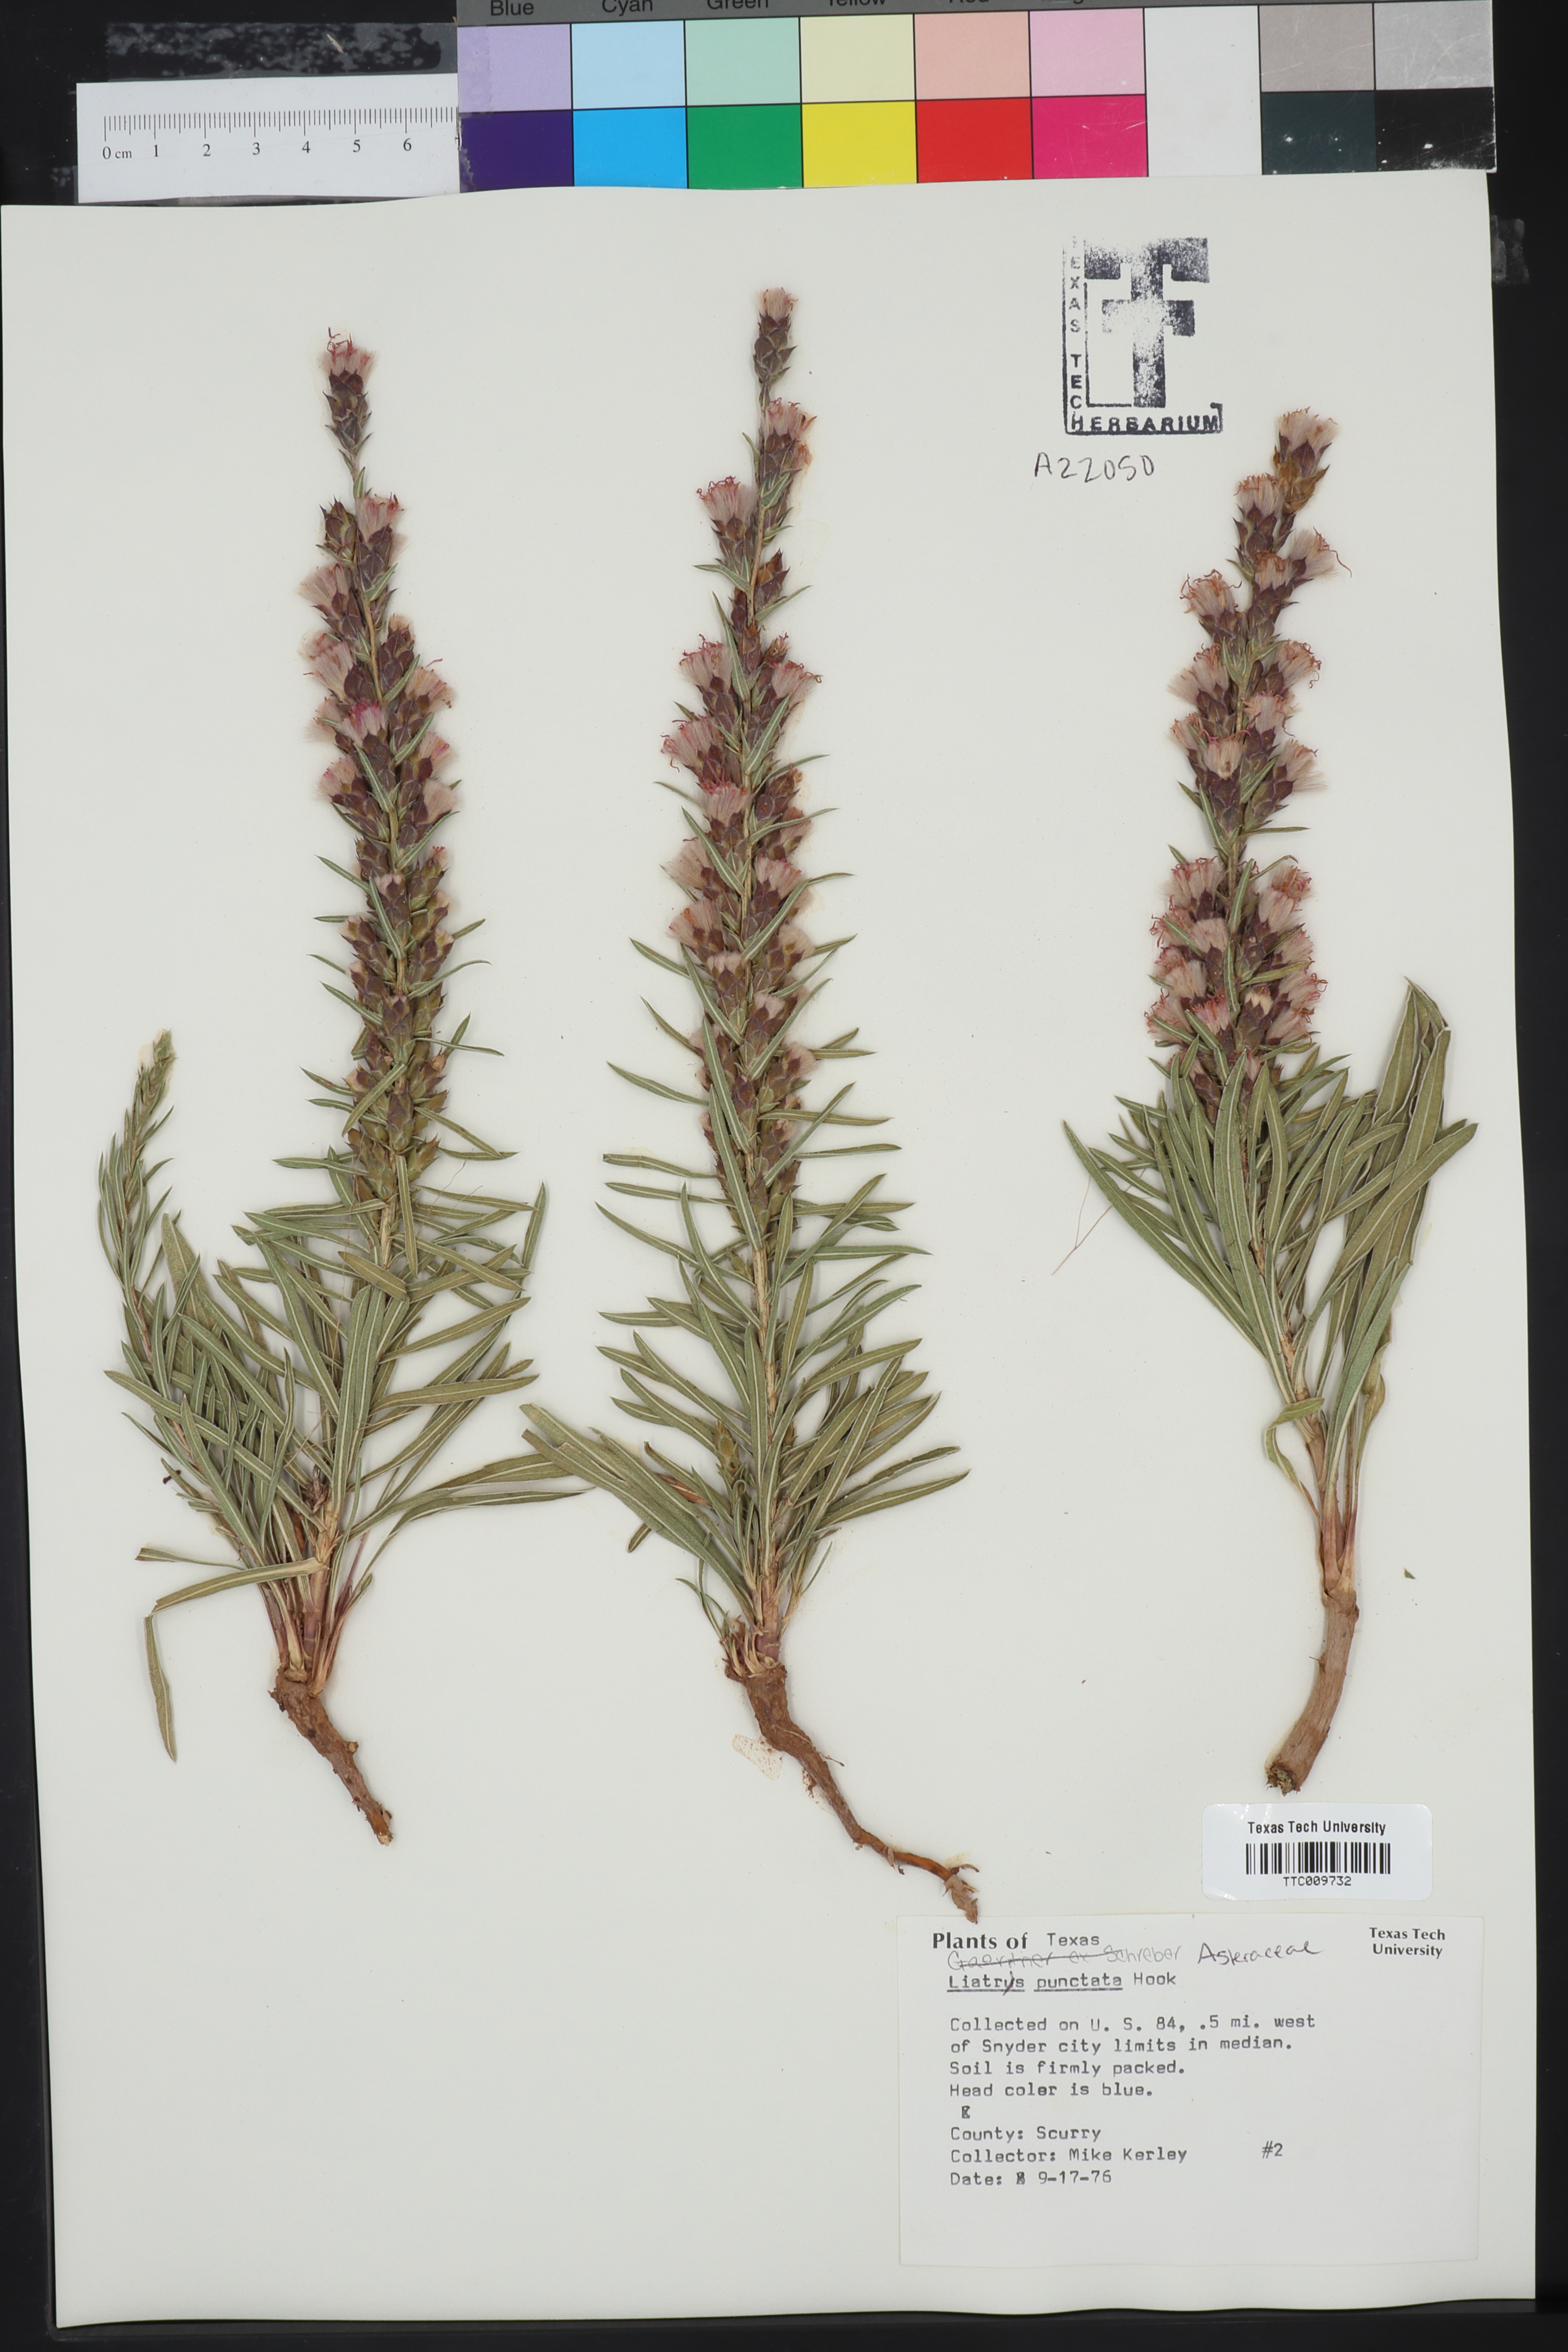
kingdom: Plantae
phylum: Tracheophyta
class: Magnoliopsida
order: Asterales
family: Asteraceae
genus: Liatris
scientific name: Liatris punctata
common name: Dotted gayfeather
